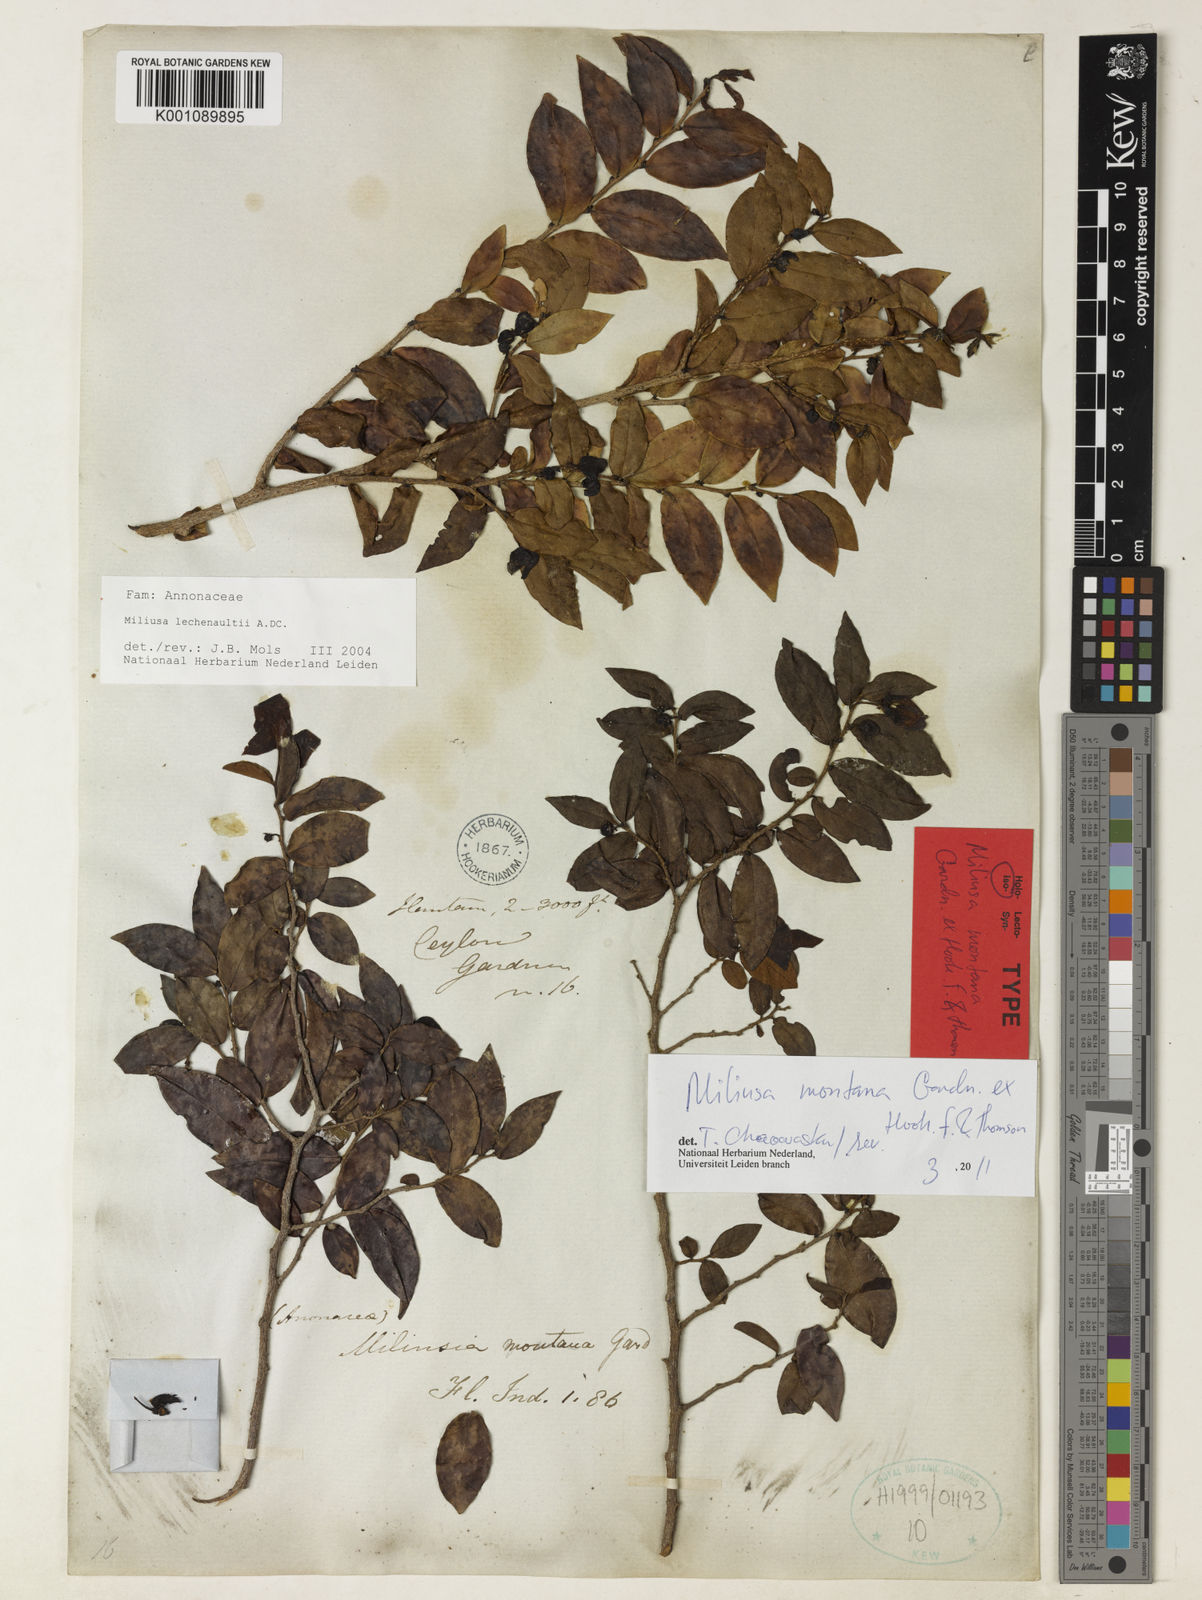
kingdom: Plantae
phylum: Tracheophyta
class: Magnoliopsida
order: Magnoliales
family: Annonaceae
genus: Miliusa
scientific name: Miliusa montana
